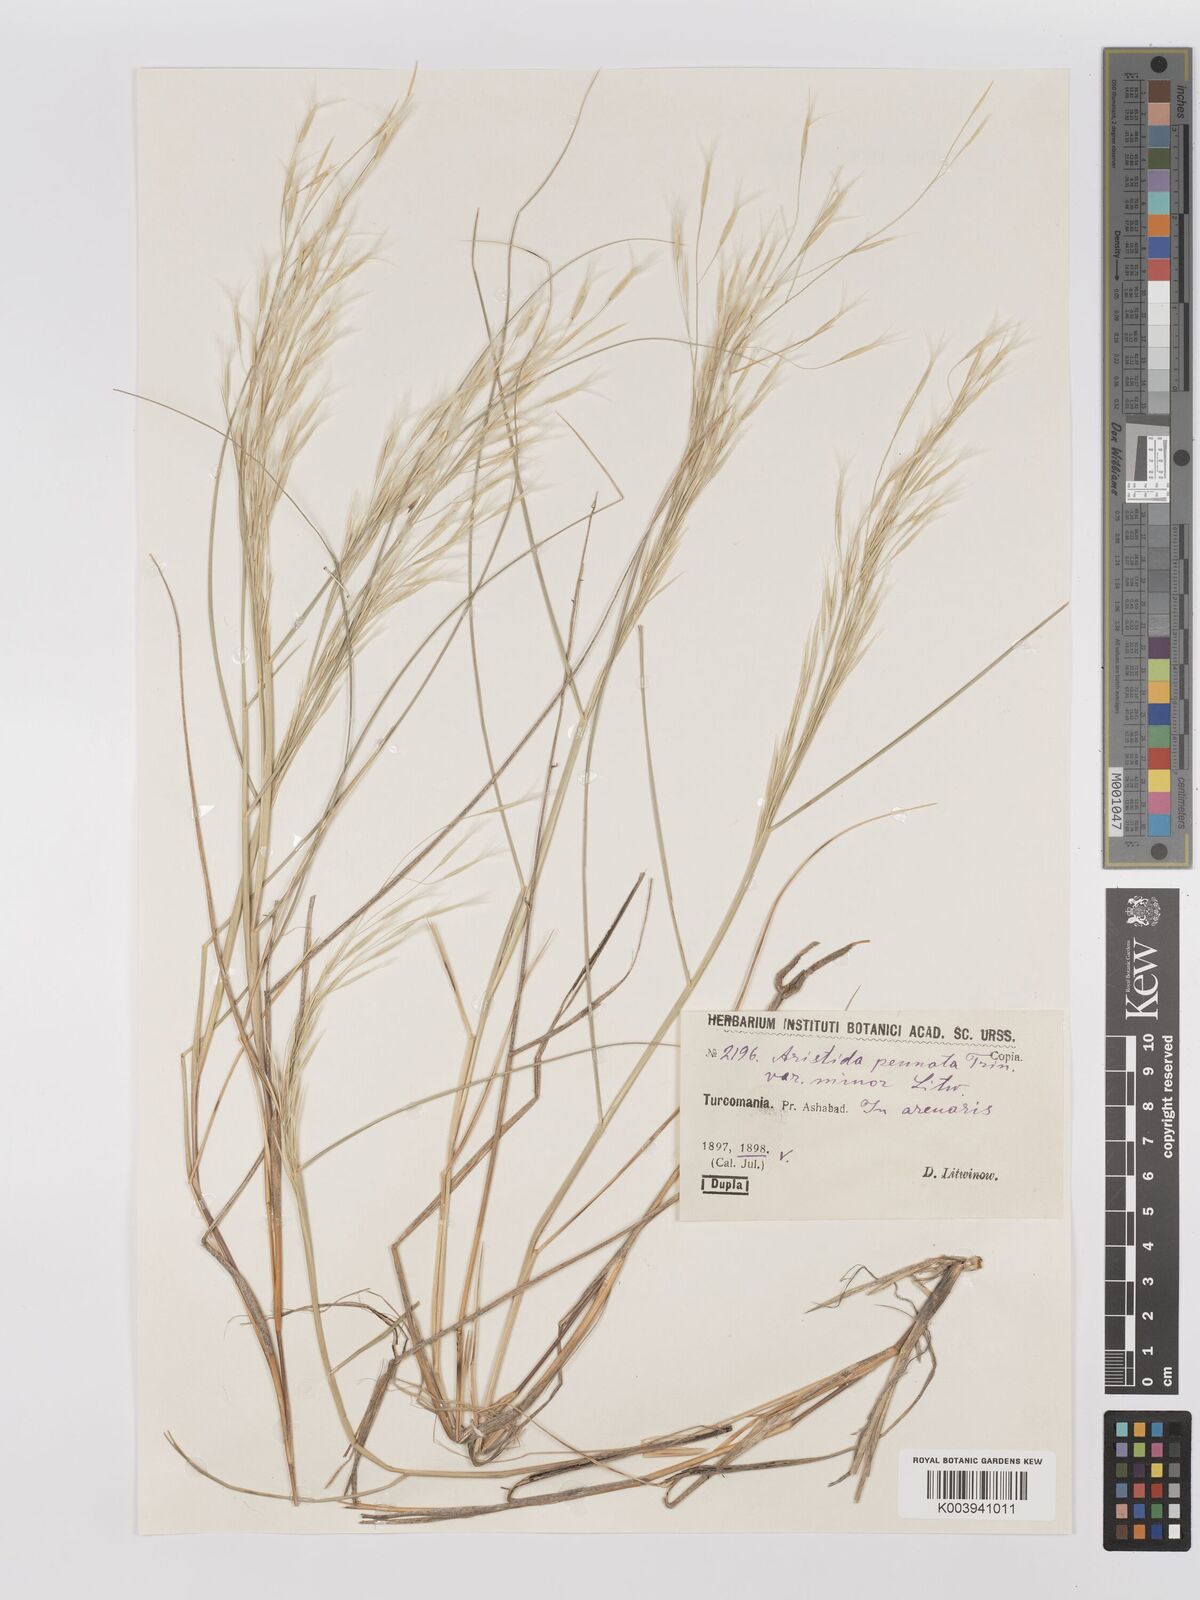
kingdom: Plantae
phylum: Tracheophyta
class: Liliopsida
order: Poales
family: Poaceae
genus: Stipagrostis
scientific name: Stipagrostis pennata
